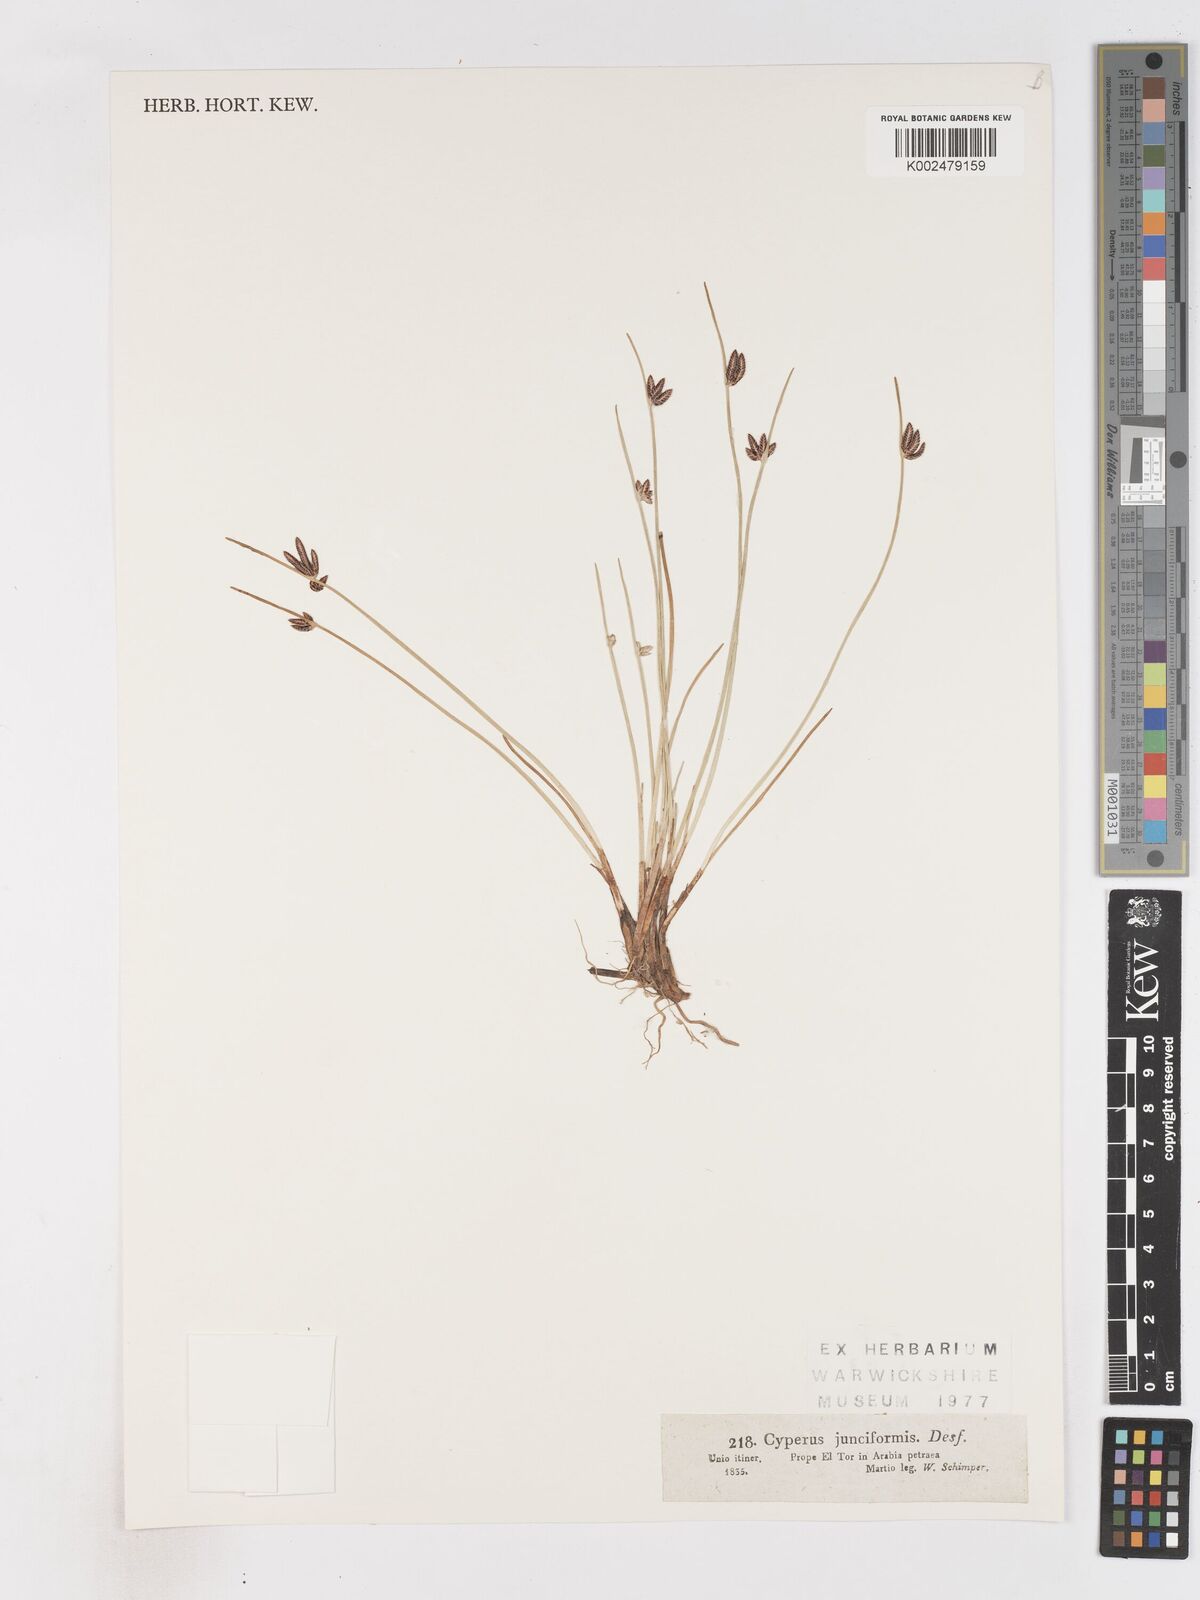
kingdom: Plantae
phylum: Tracheophyta
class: Liliopsida
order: Poales
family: Cyperaceae
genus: Cyperus
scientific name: Cyperus laevigatus
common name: Smooth flat sedge
